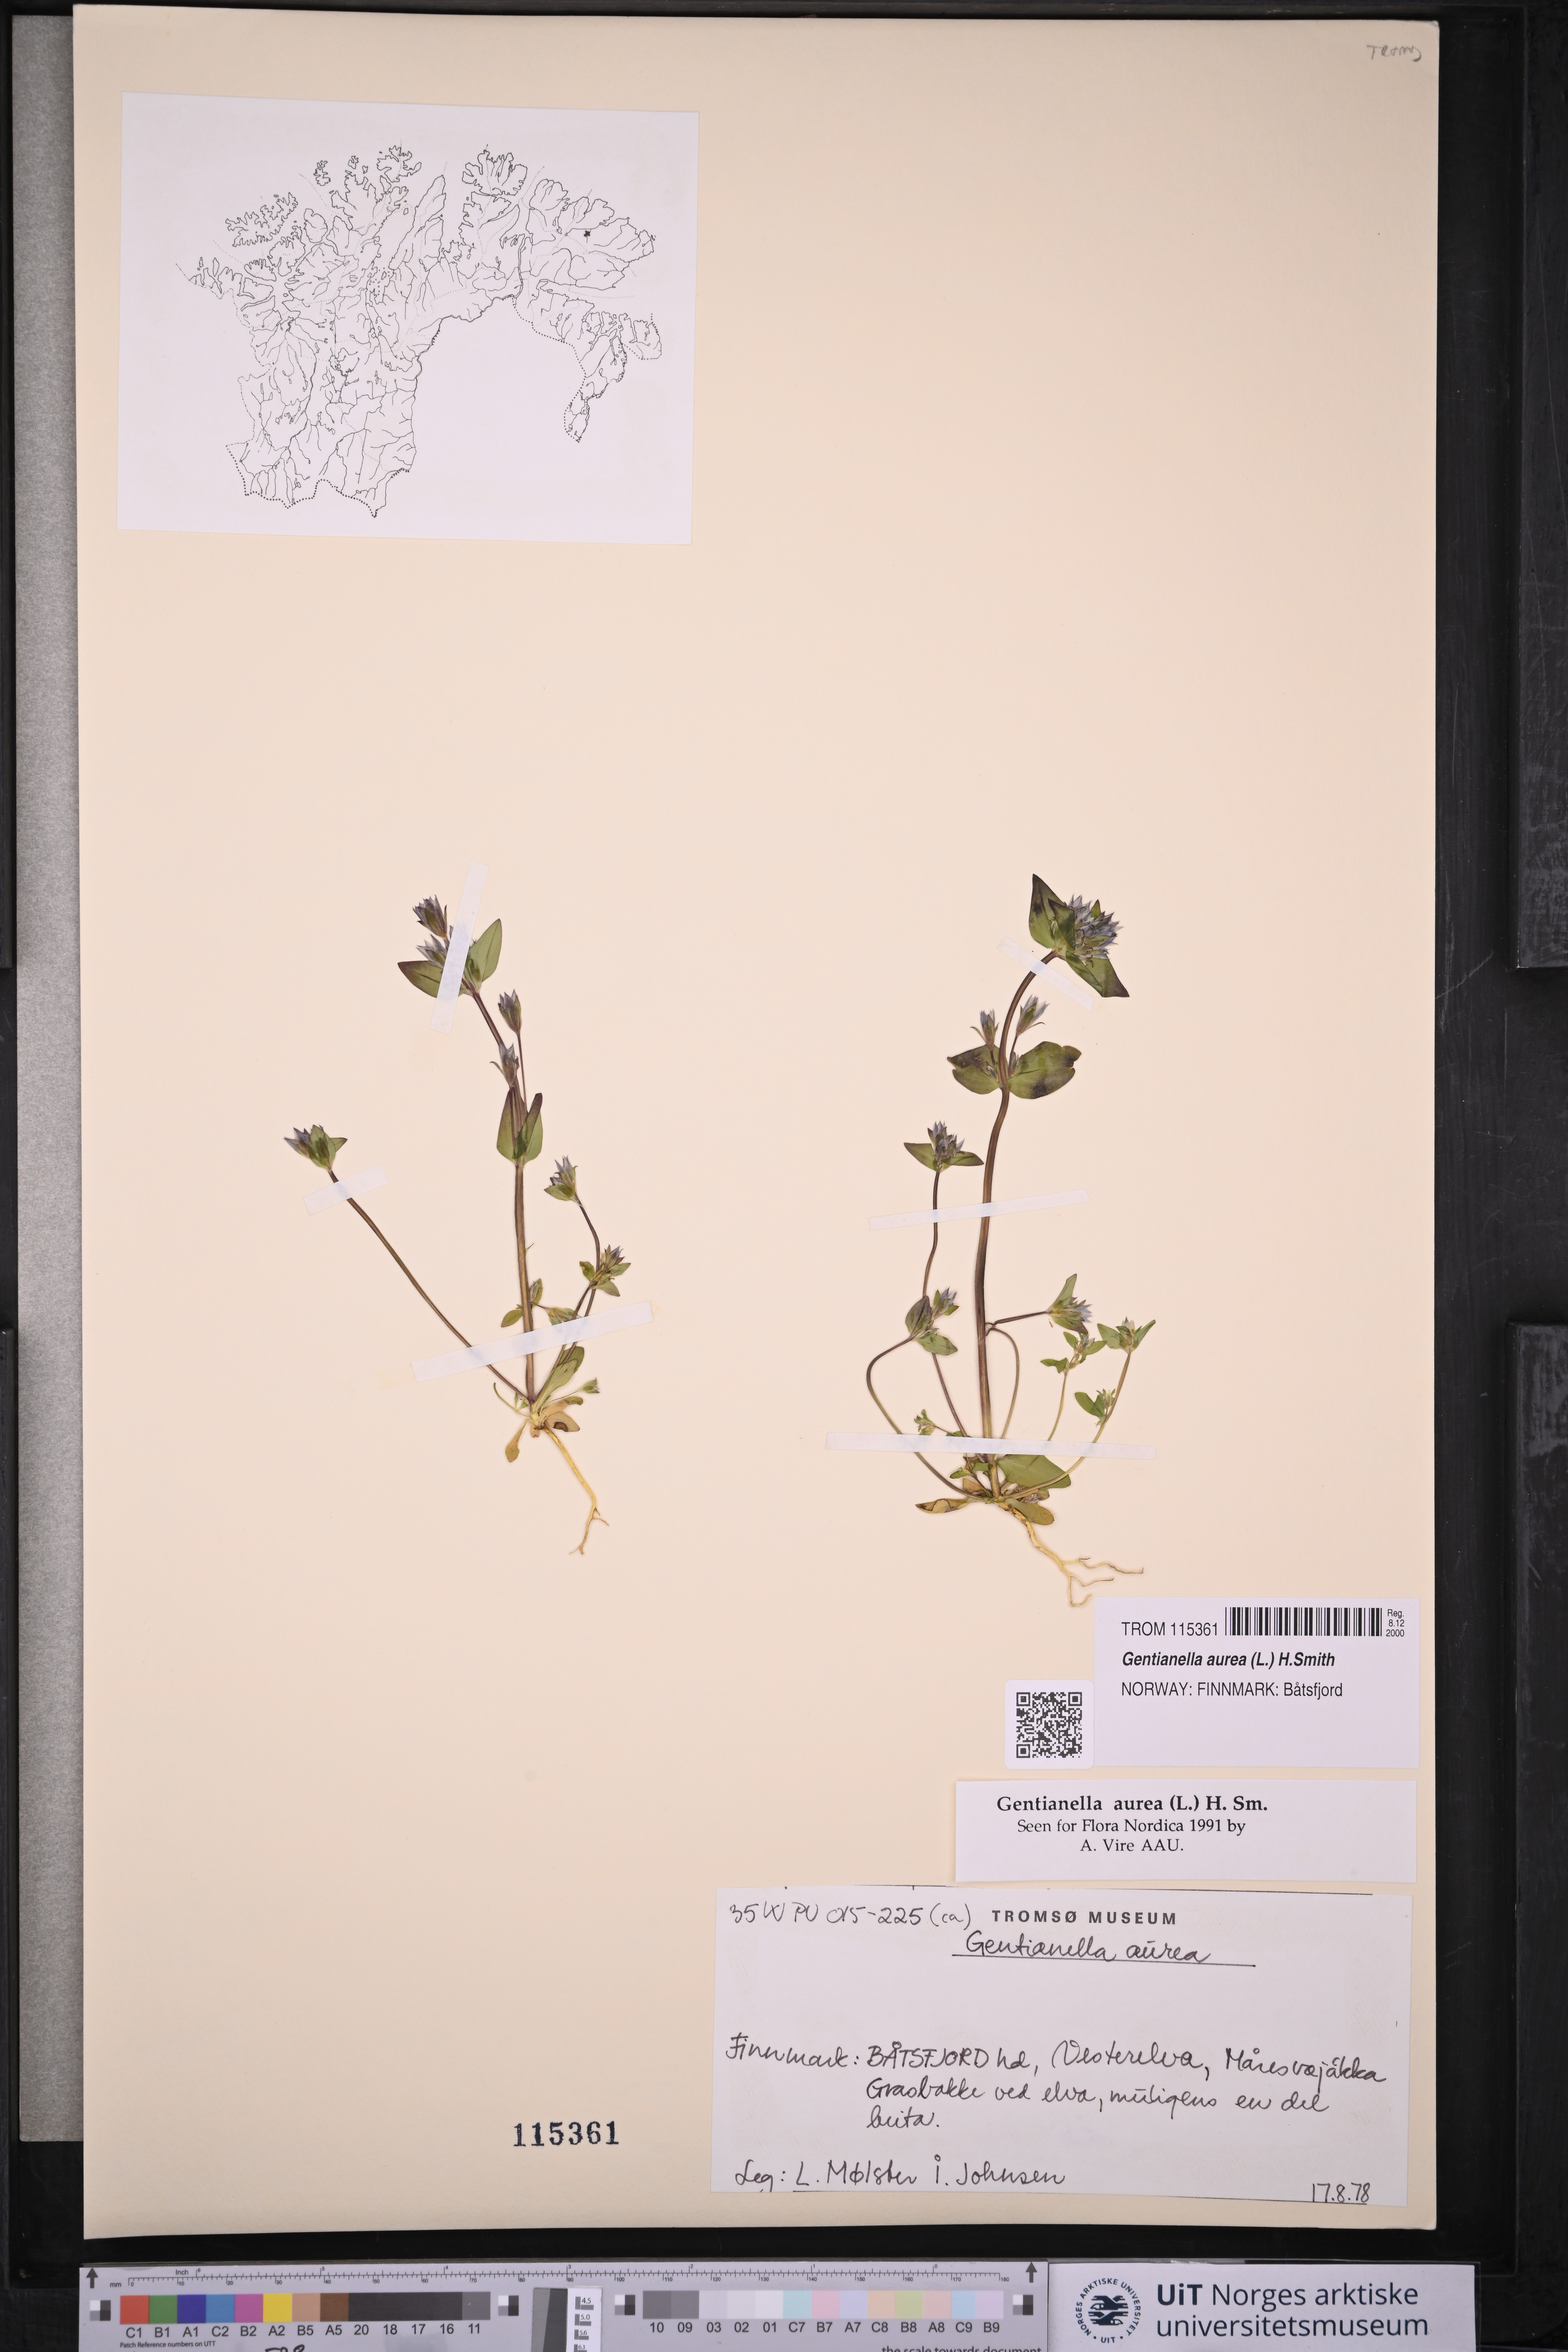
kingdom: Plantae
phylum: Tracheophyta
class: Magnoliopsida
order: Gentianales
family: Gentianaceae
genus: Gentianella
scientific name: Gentianella aurea
